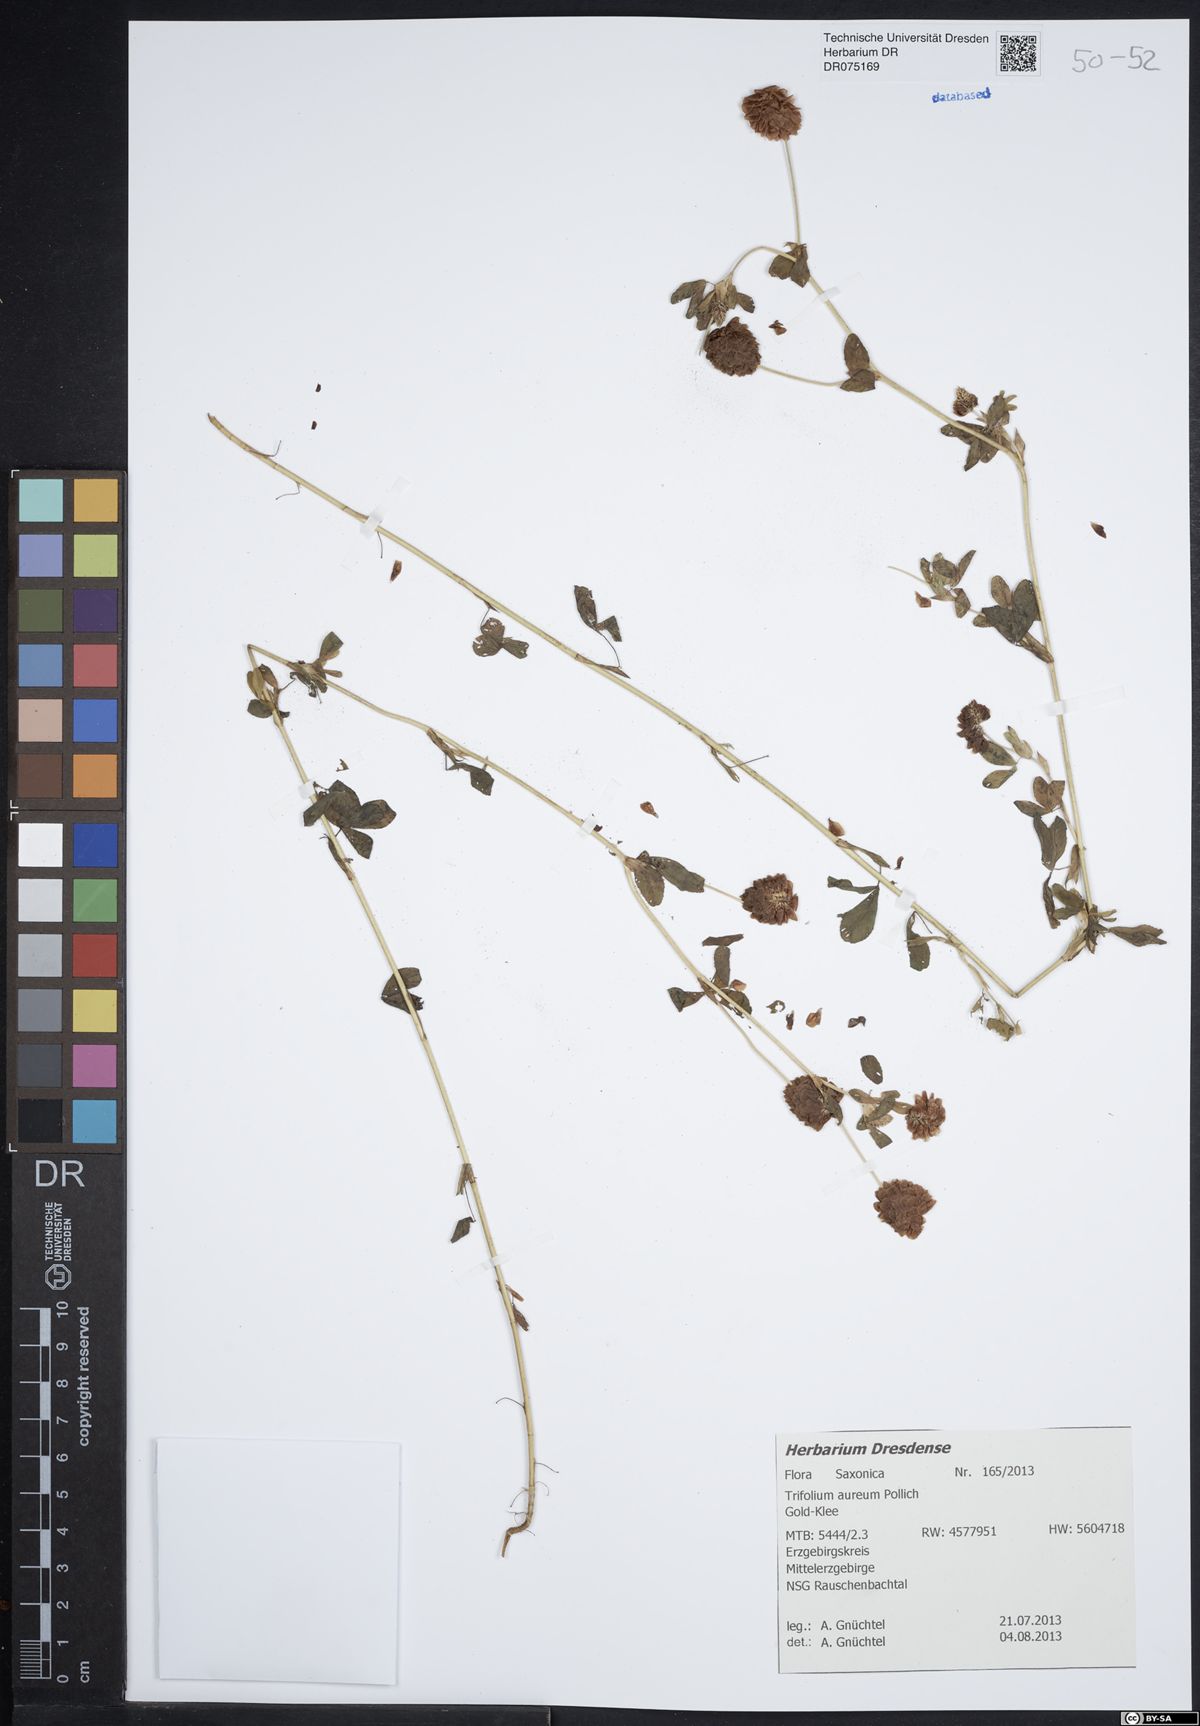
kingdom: Plantae
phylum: Tracheophyta
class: Magnoliopsida
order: Fabales
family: Fabaceae
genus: Trifolium
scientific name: Trifolium aureum
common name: Golden clover
